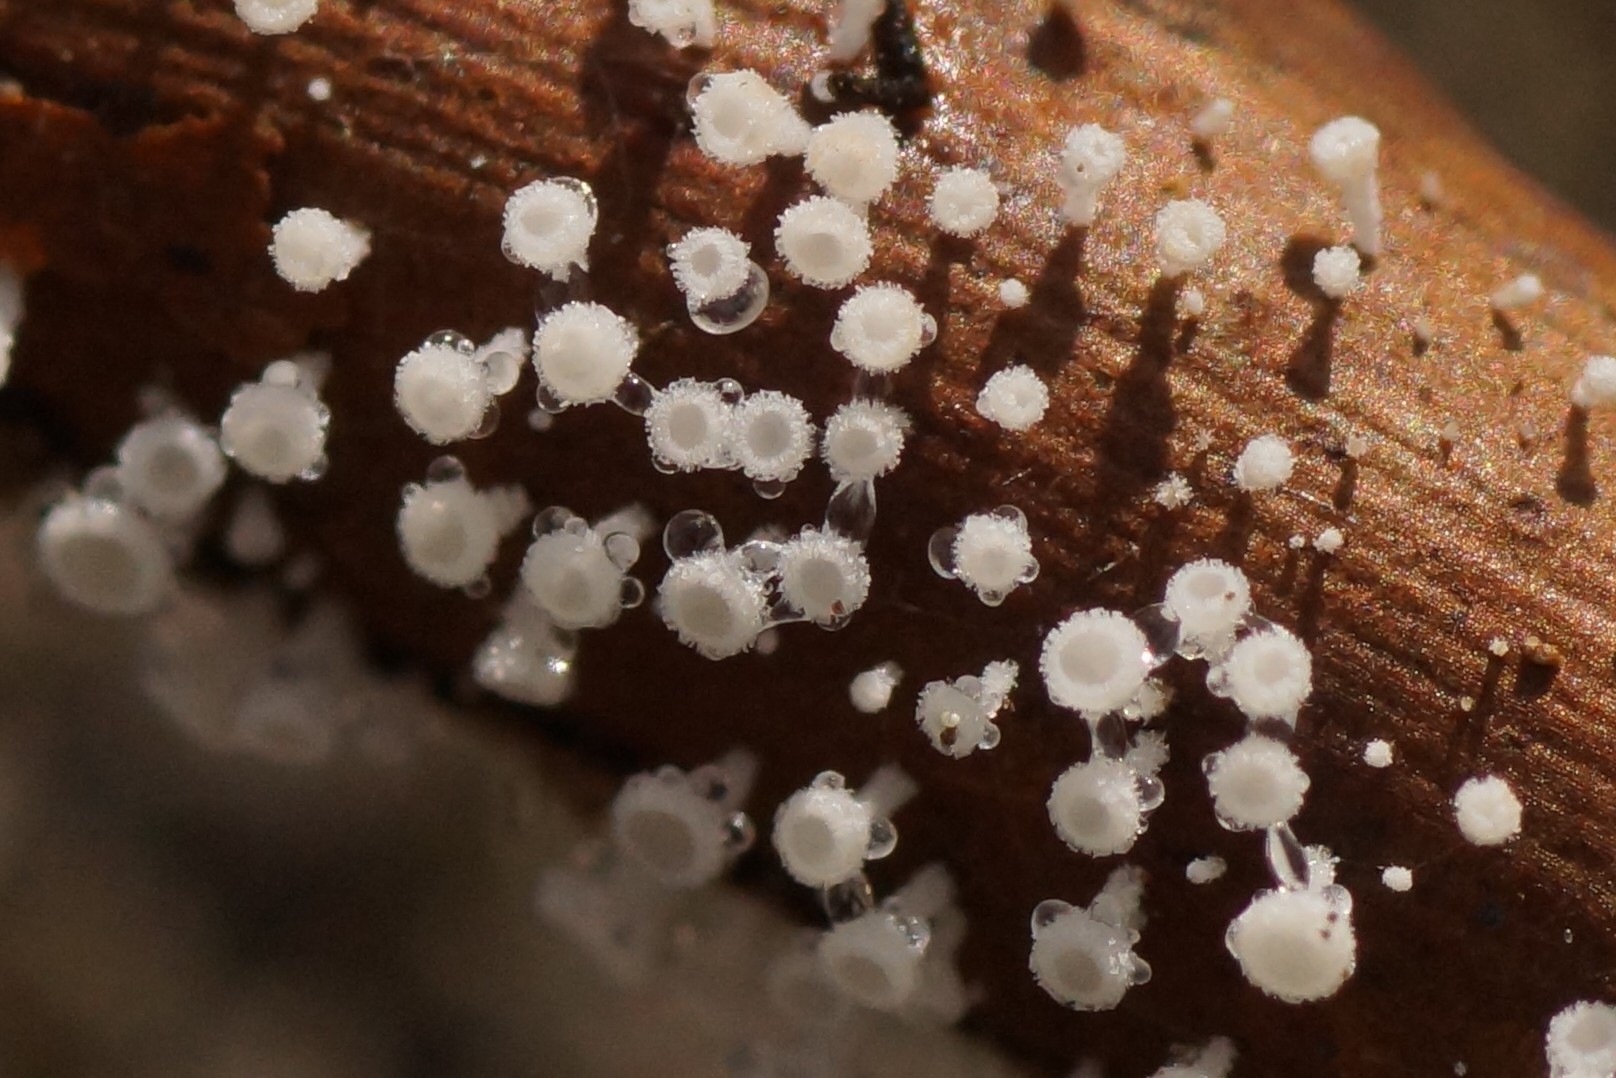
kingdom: Fungi
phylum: Ascomycota
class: Leotiomycetes
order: Helotiales
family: Lachnaceae
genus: Lachnum
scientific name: Lachnum
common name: frynseskive
